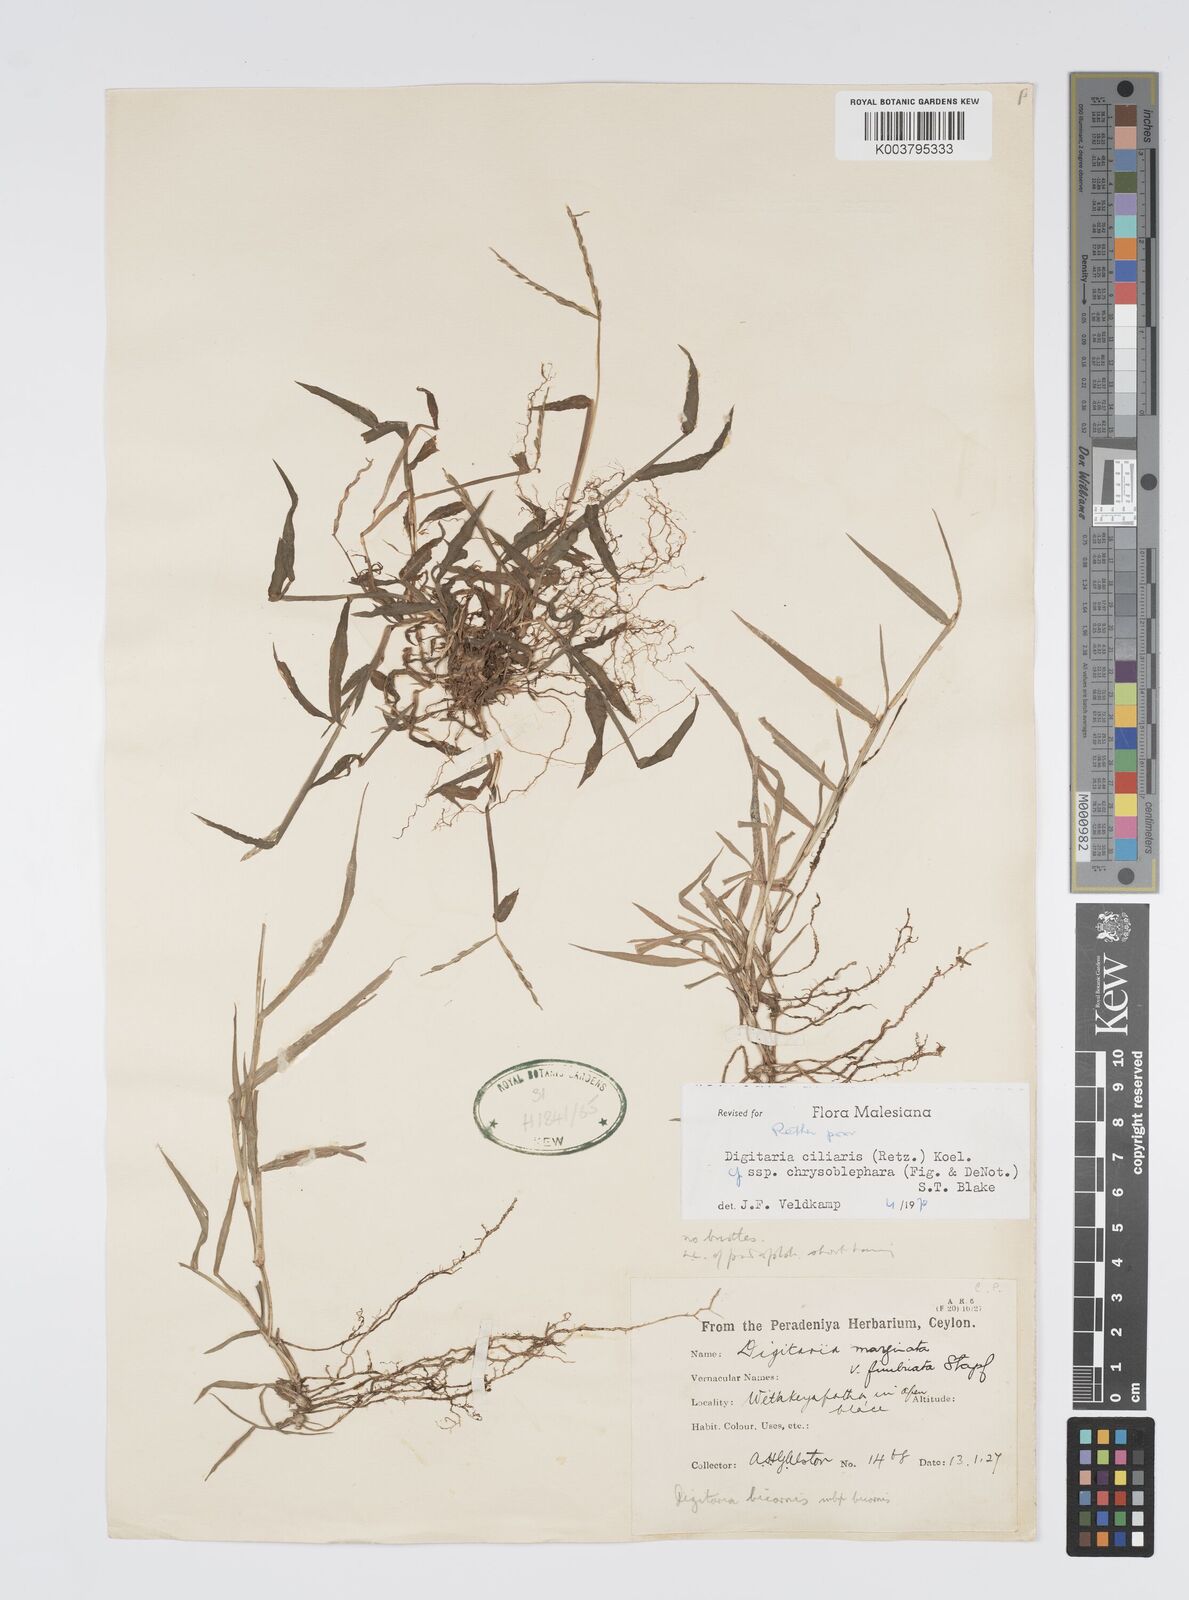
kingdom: Plantae
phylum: Tracheophyta
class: Liliopsida
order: Poales
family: Poaceae
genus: Digitaria
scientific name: Digitaria ciliaris
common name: Tropical finger-grass
